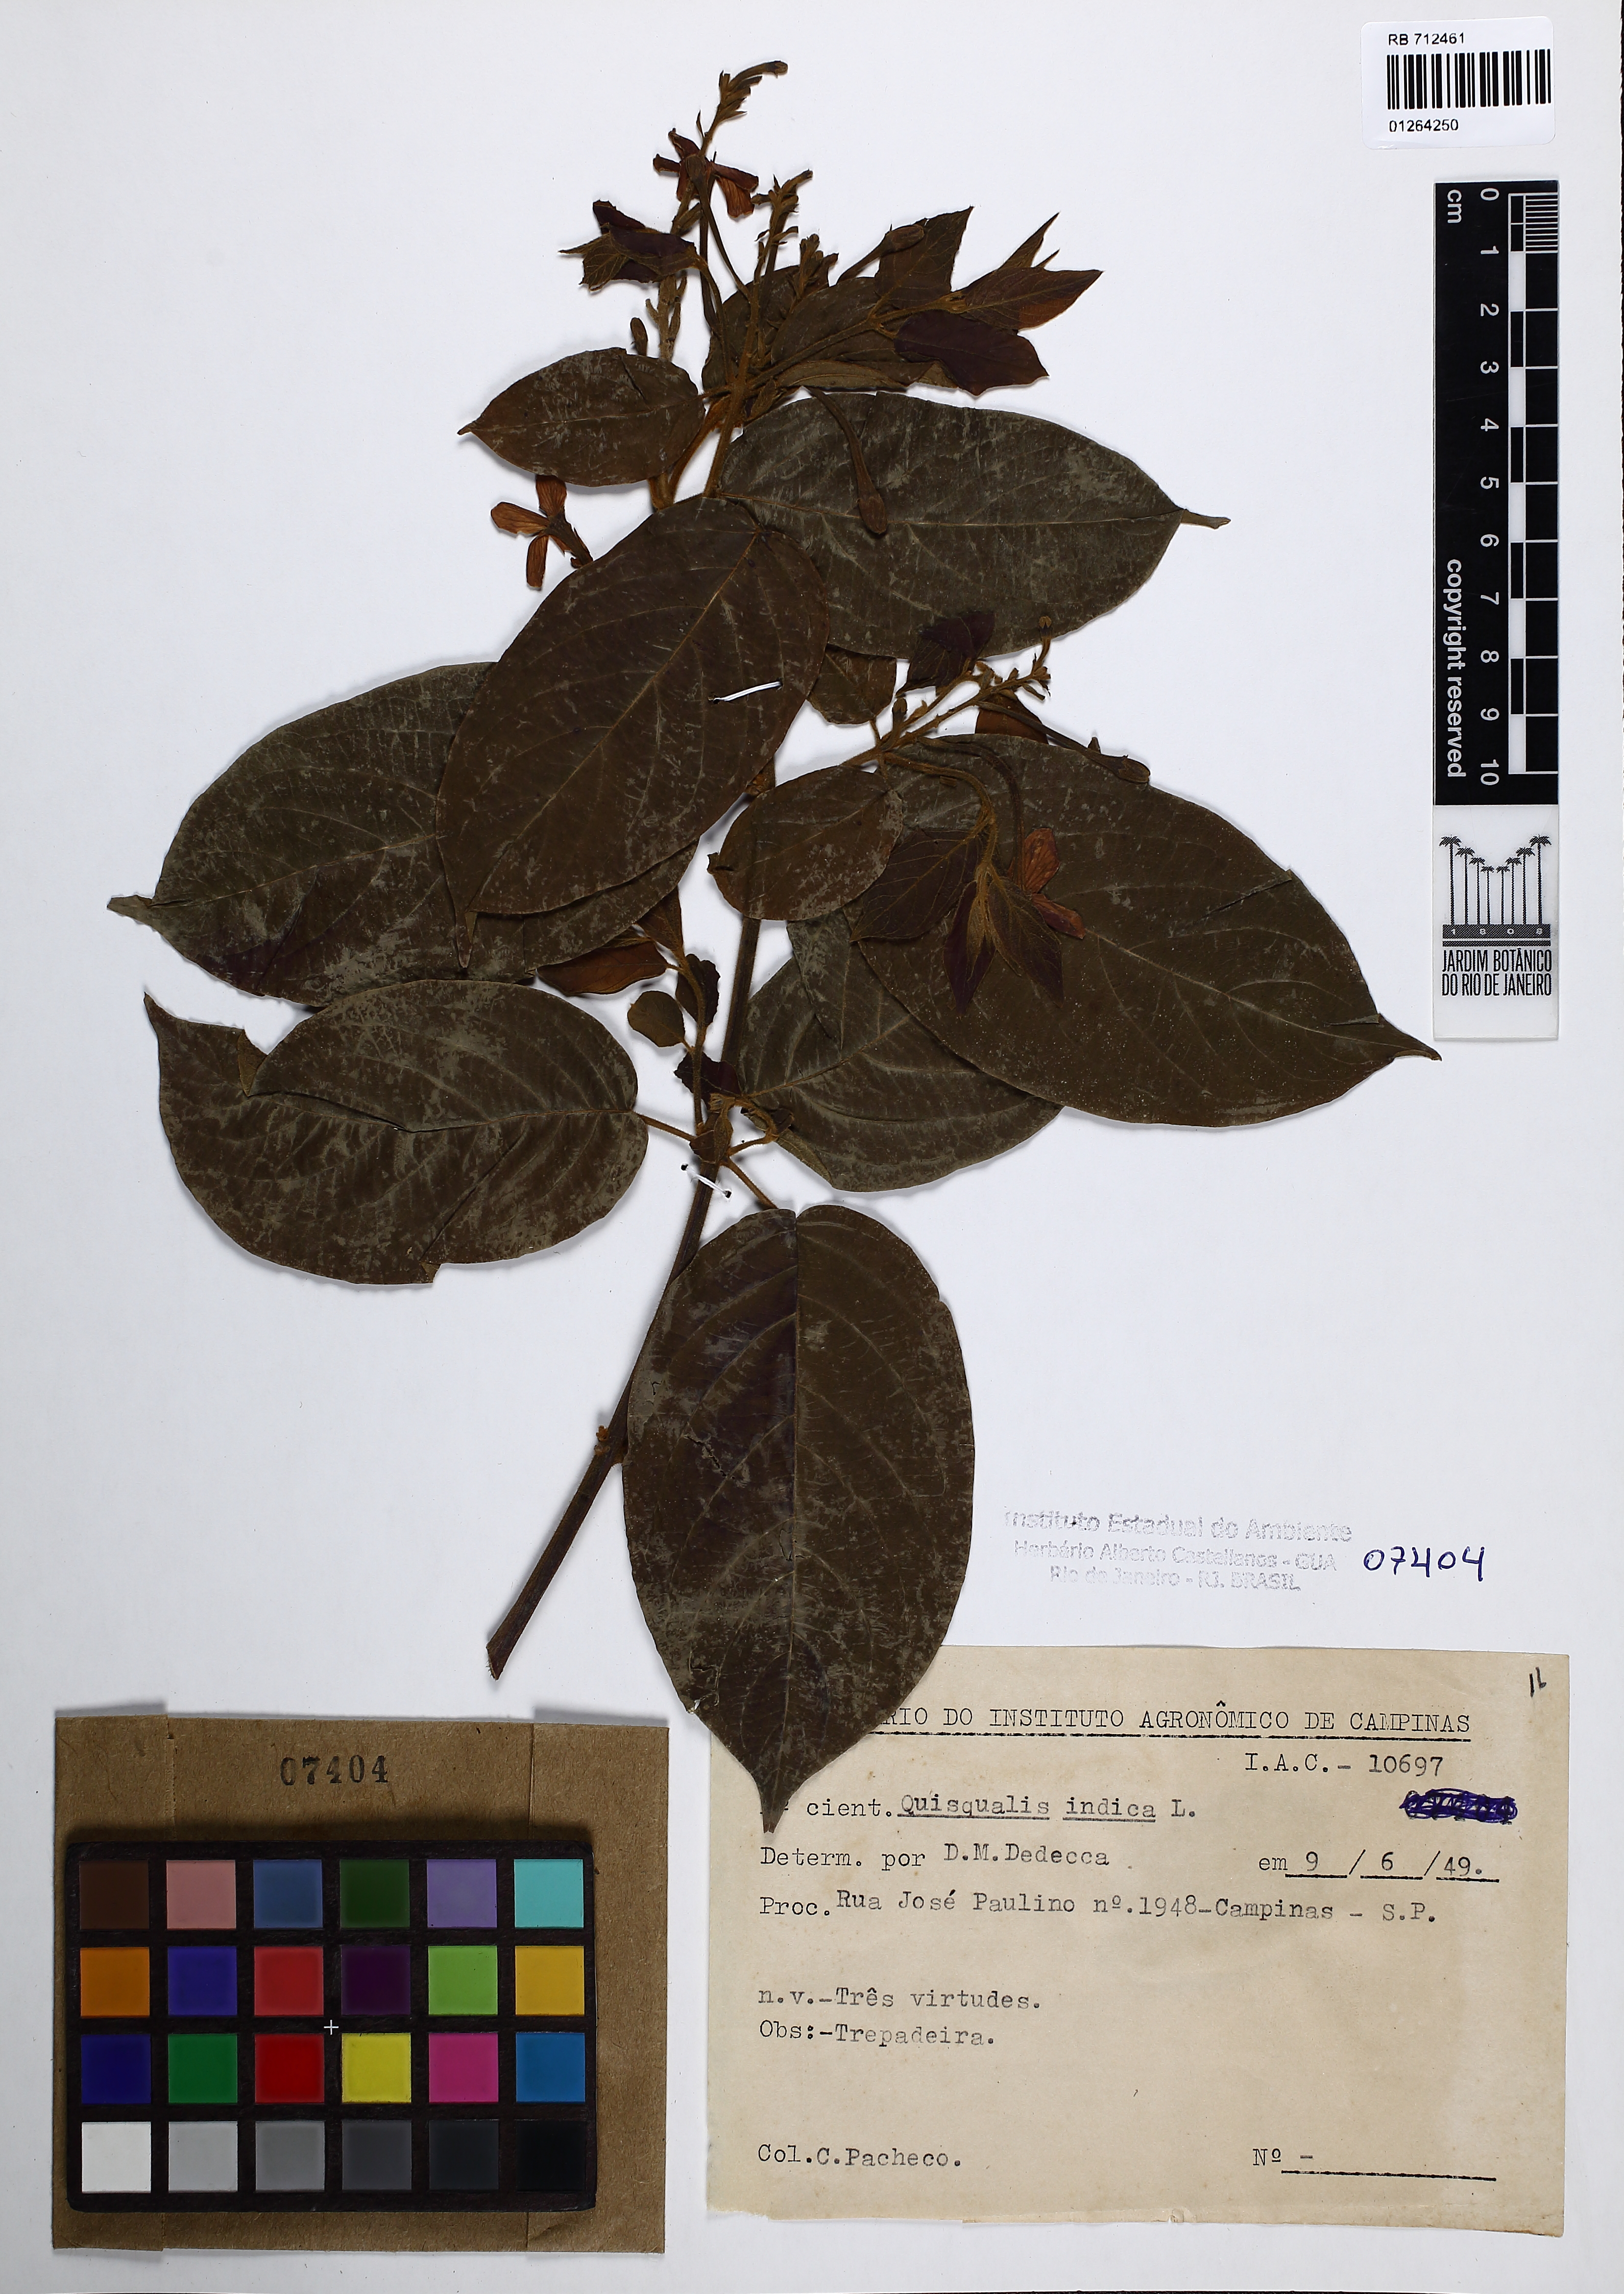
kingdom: Plantae
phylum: Tracheophyta
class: Magnoliopsida
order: Myrtales
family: Combretaceae
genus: Combretum
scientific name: Combretum indicum
